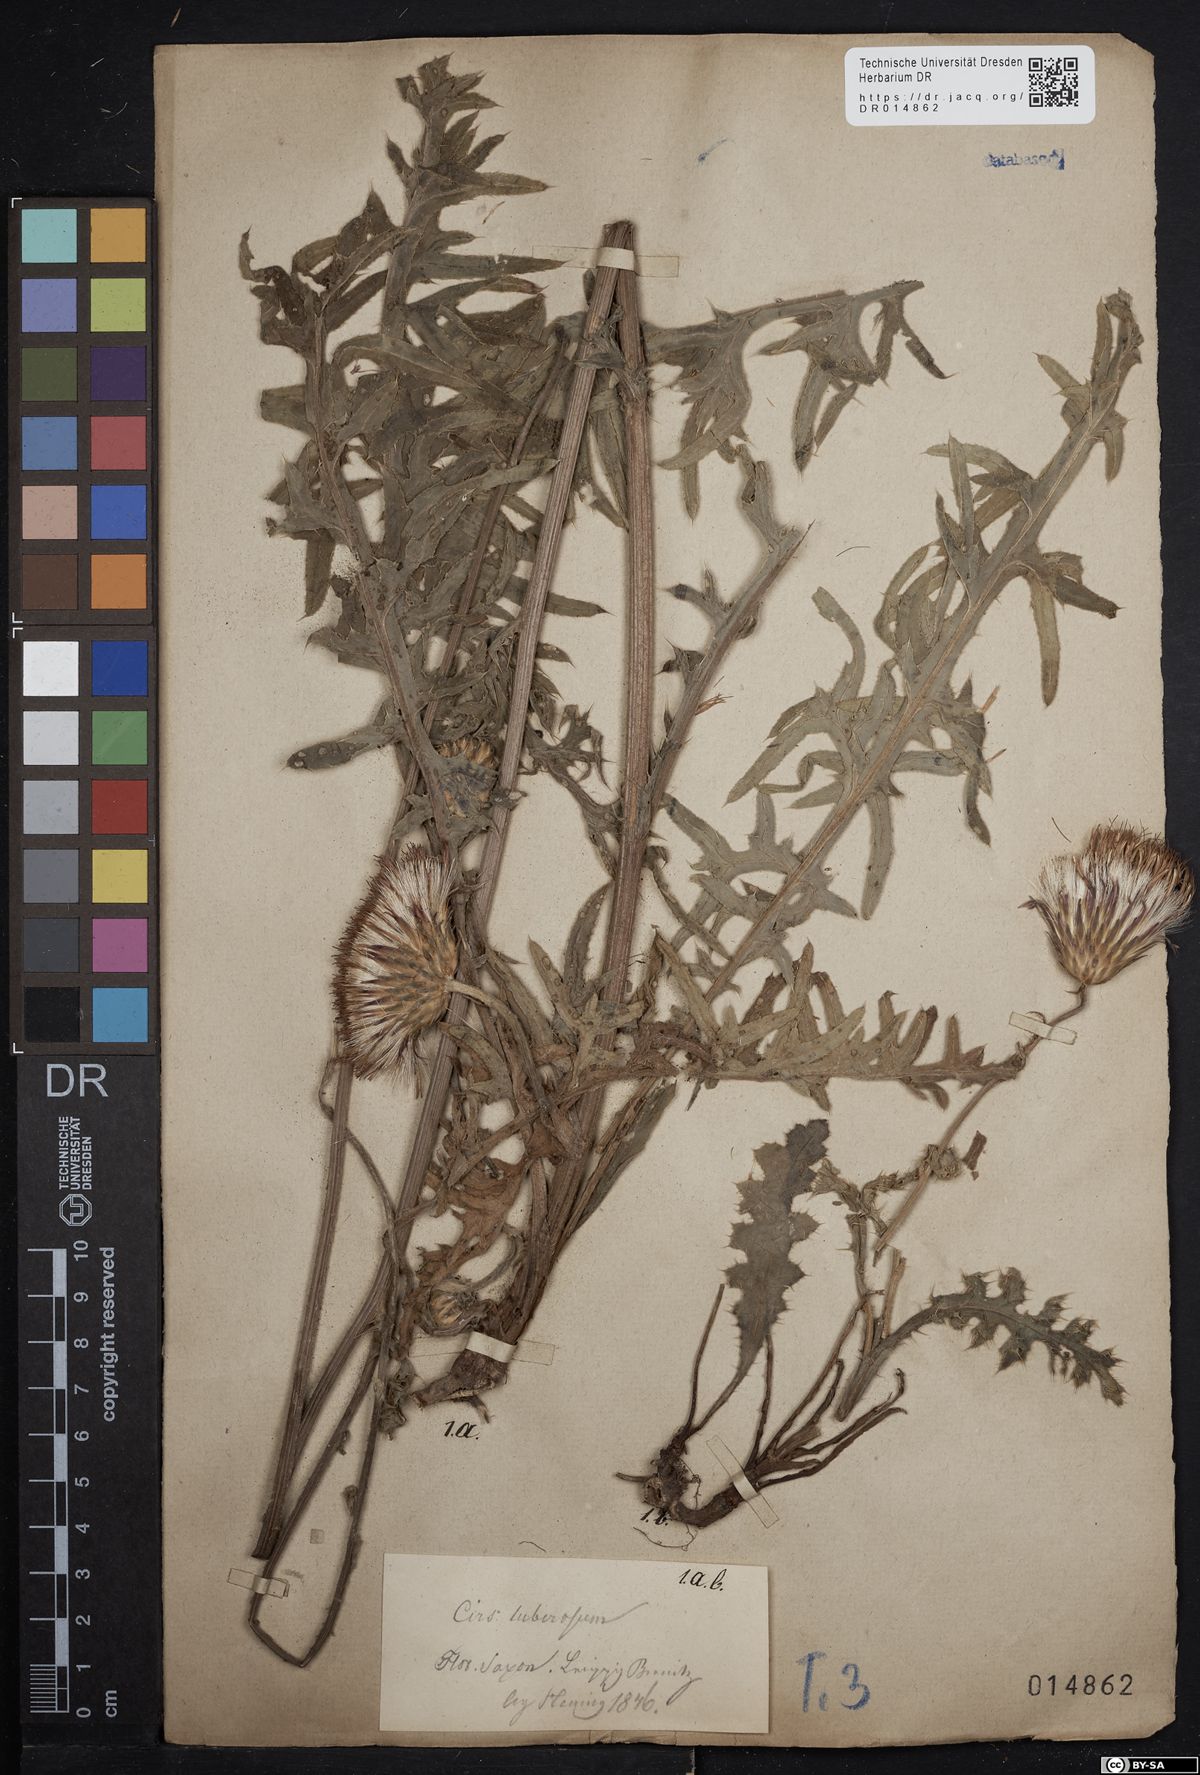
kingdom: Plantae
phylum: Tracheophyta
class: Magnoliopsida
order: Asterales
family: Asteraceae
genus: Cirsium
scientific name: Cirsium tuberosum
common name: Tuberous thistle
